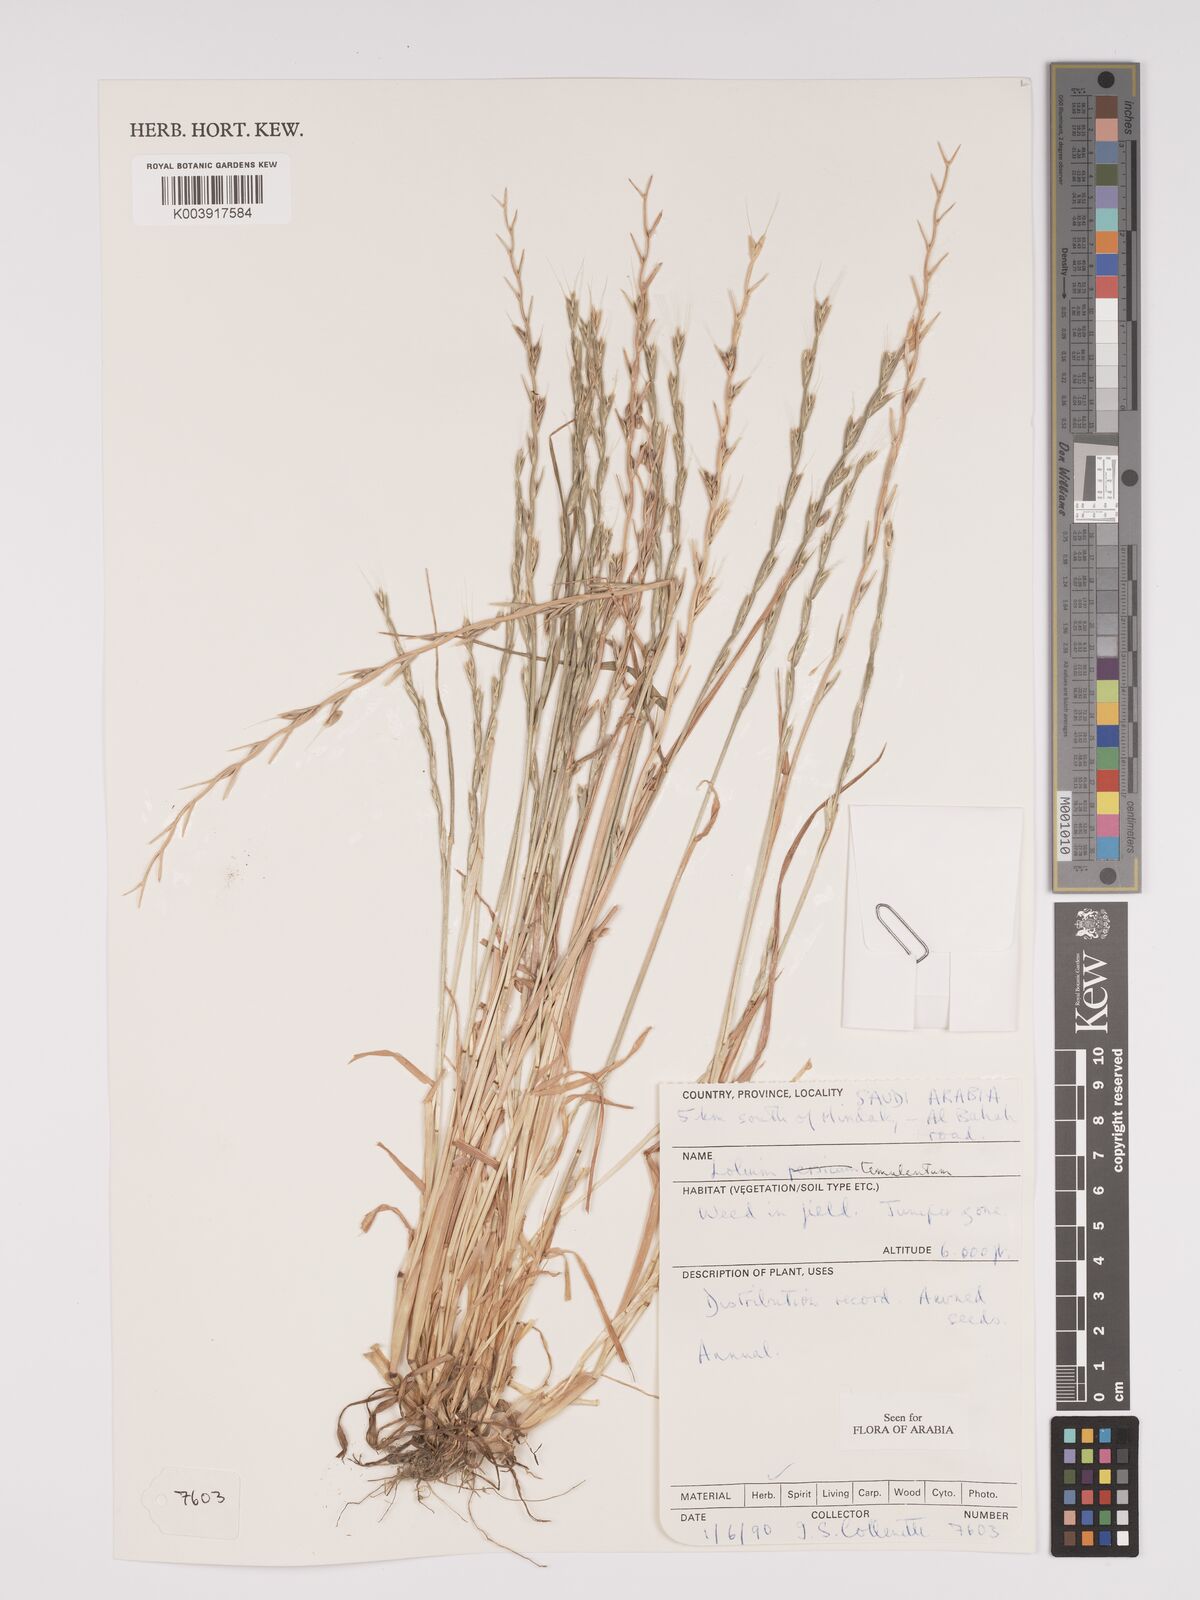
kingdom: Plantae
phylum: Tracheophyta
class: Liliopsida
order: Poales
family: Poaceae
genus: Lolium
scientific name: Lolium temulentum
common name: Darnel
